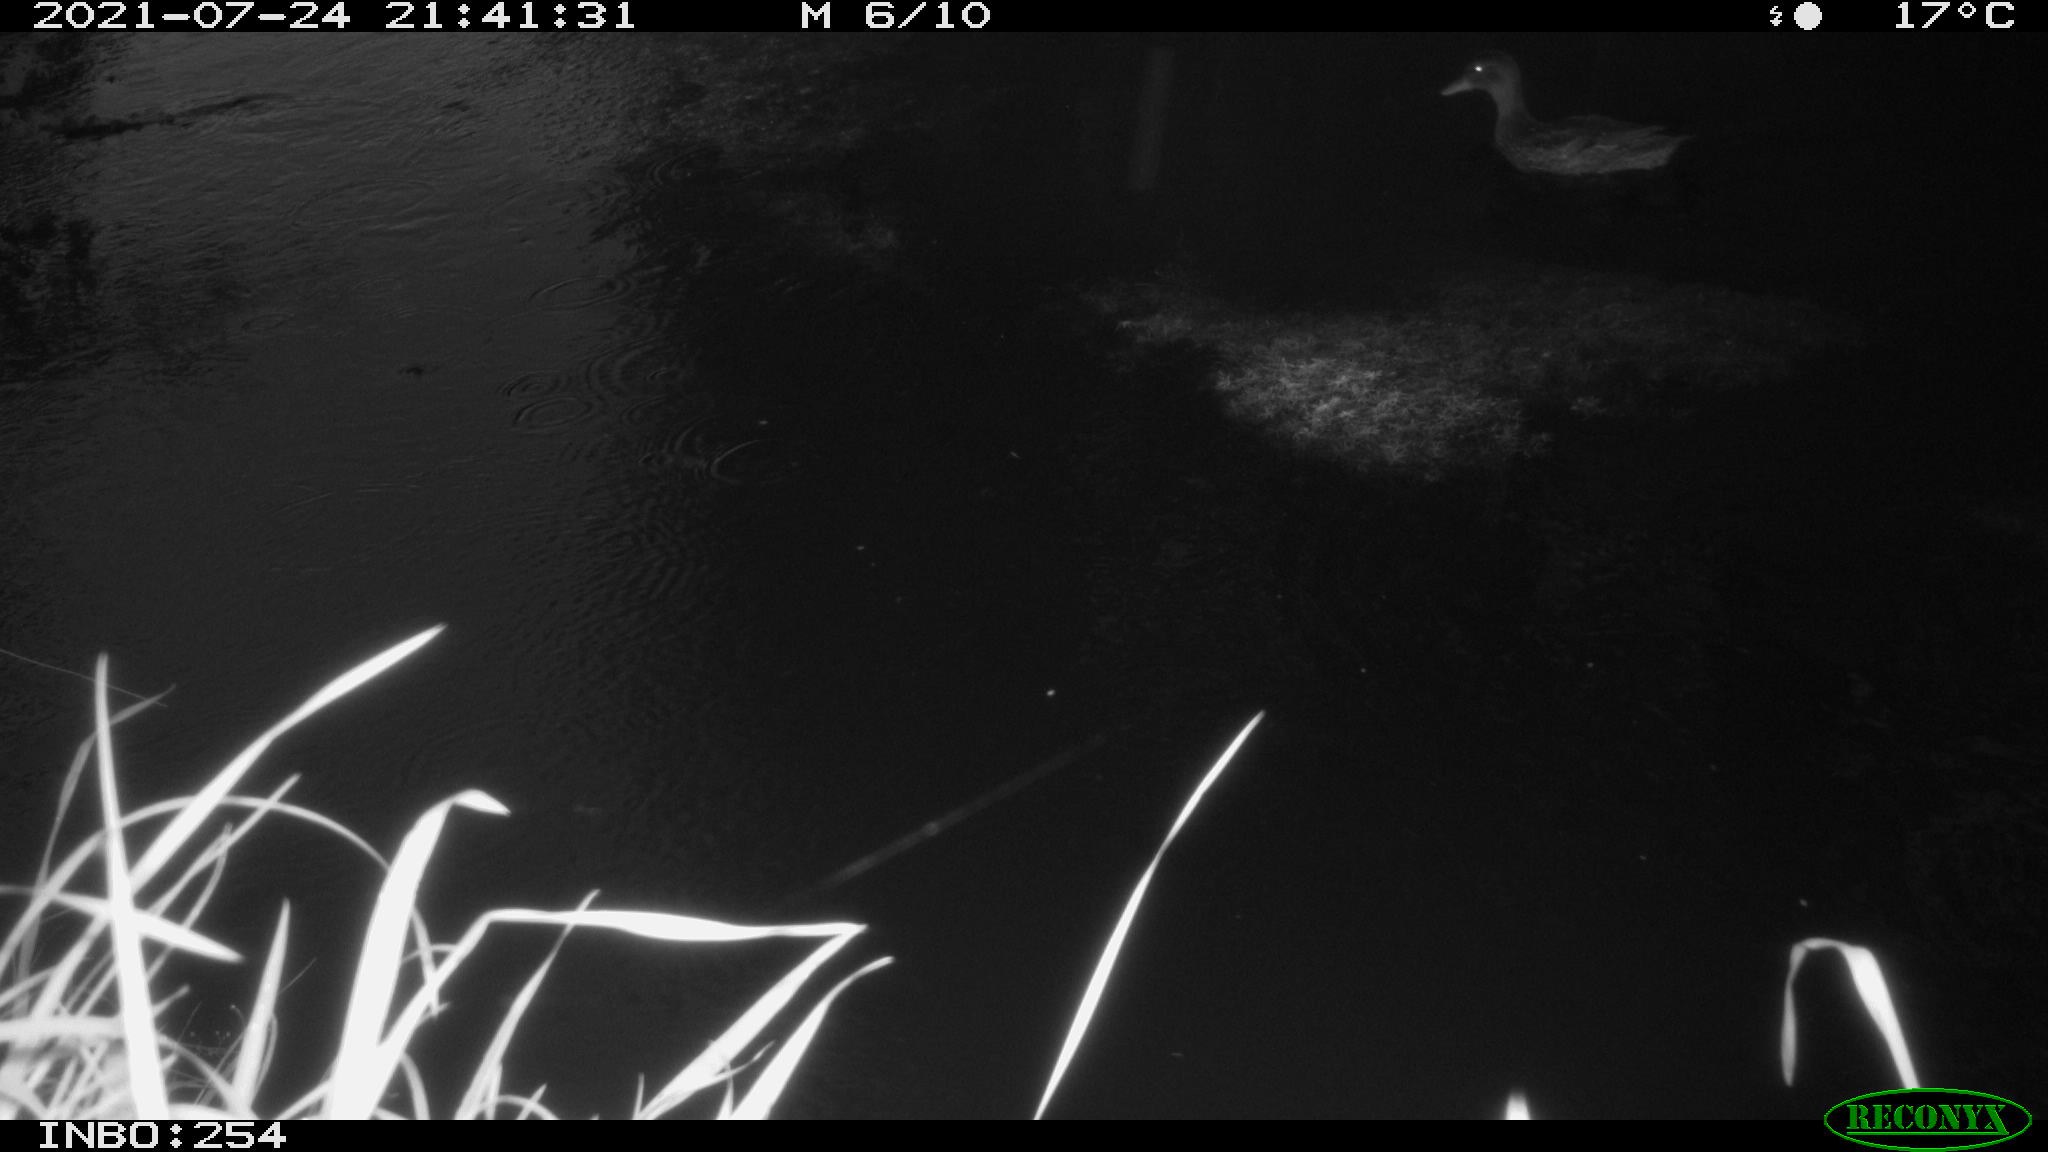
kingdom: Animalia
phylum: Chordata
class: Aves
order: Anseriformes
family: Anatidae
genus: Anas
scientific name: Anas platyrhynchos
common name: Mallard
